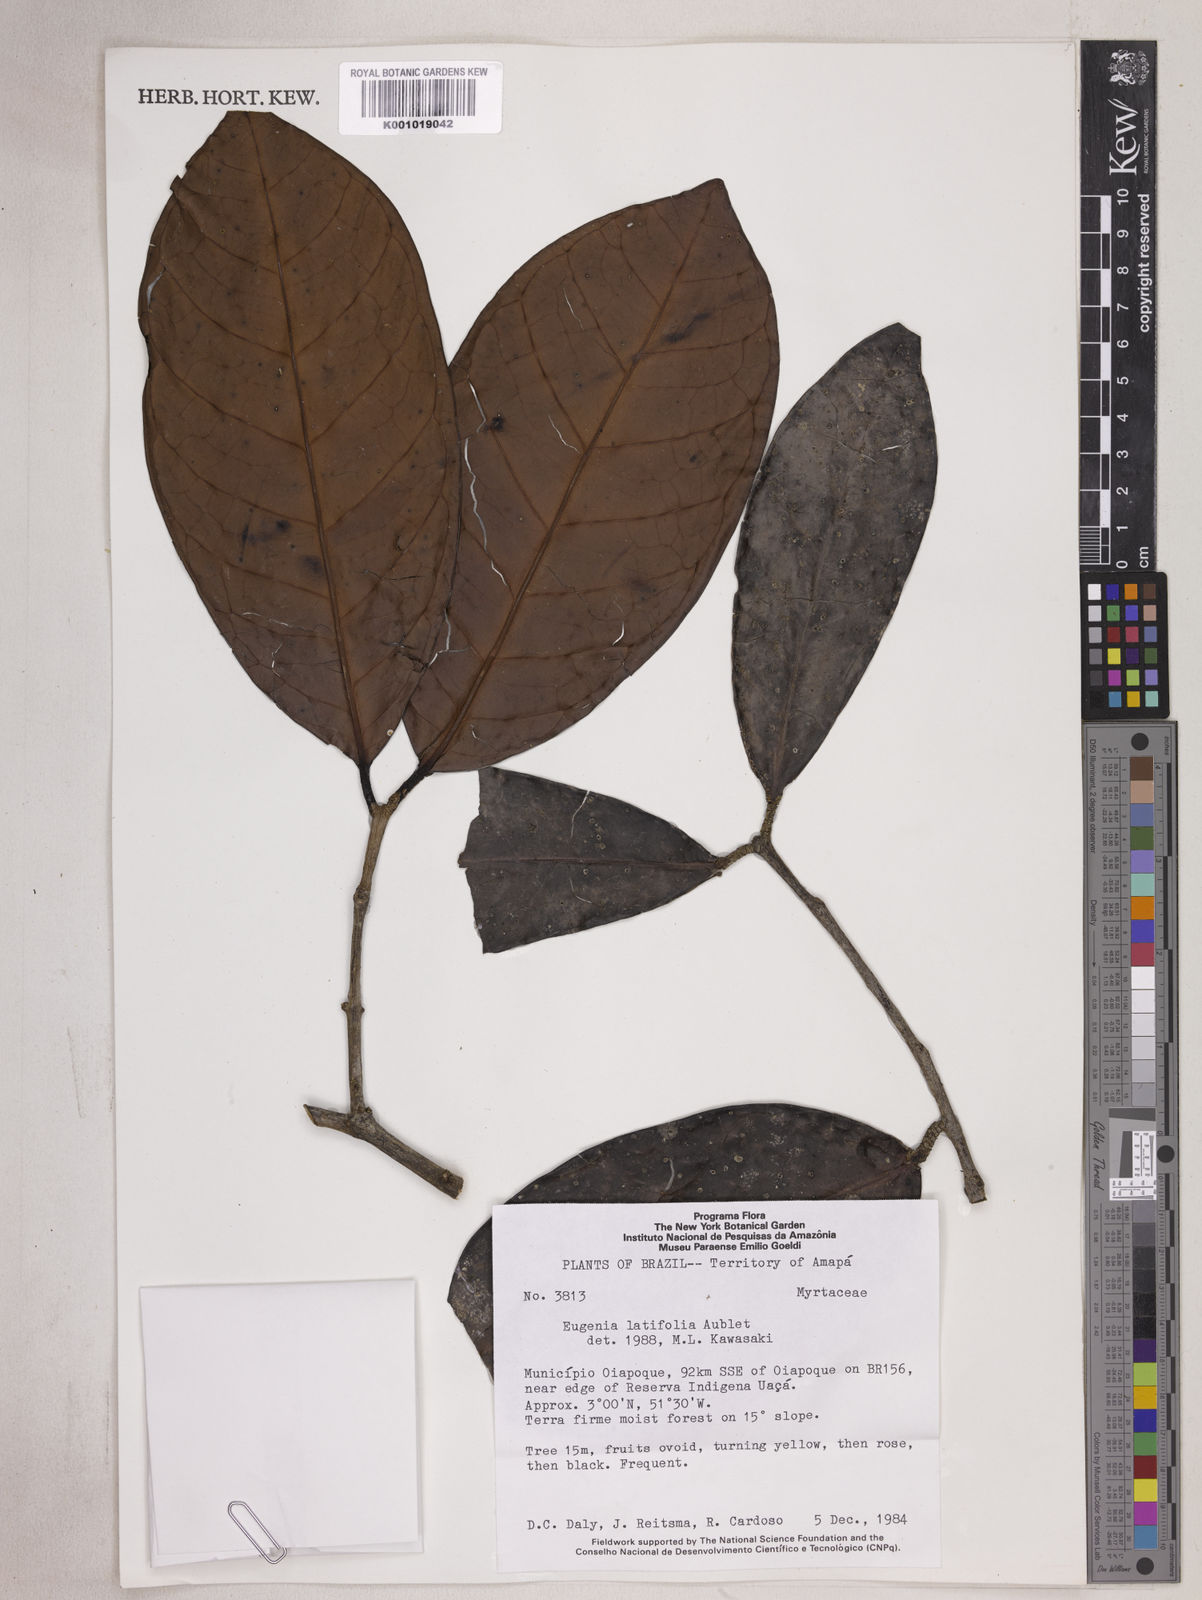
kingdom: Plantae
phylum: Tracheophyta
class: Magnoliopsida
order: Myrtales
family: Myrtaceae
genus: Eugenia
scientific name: Eugenia latifolia
